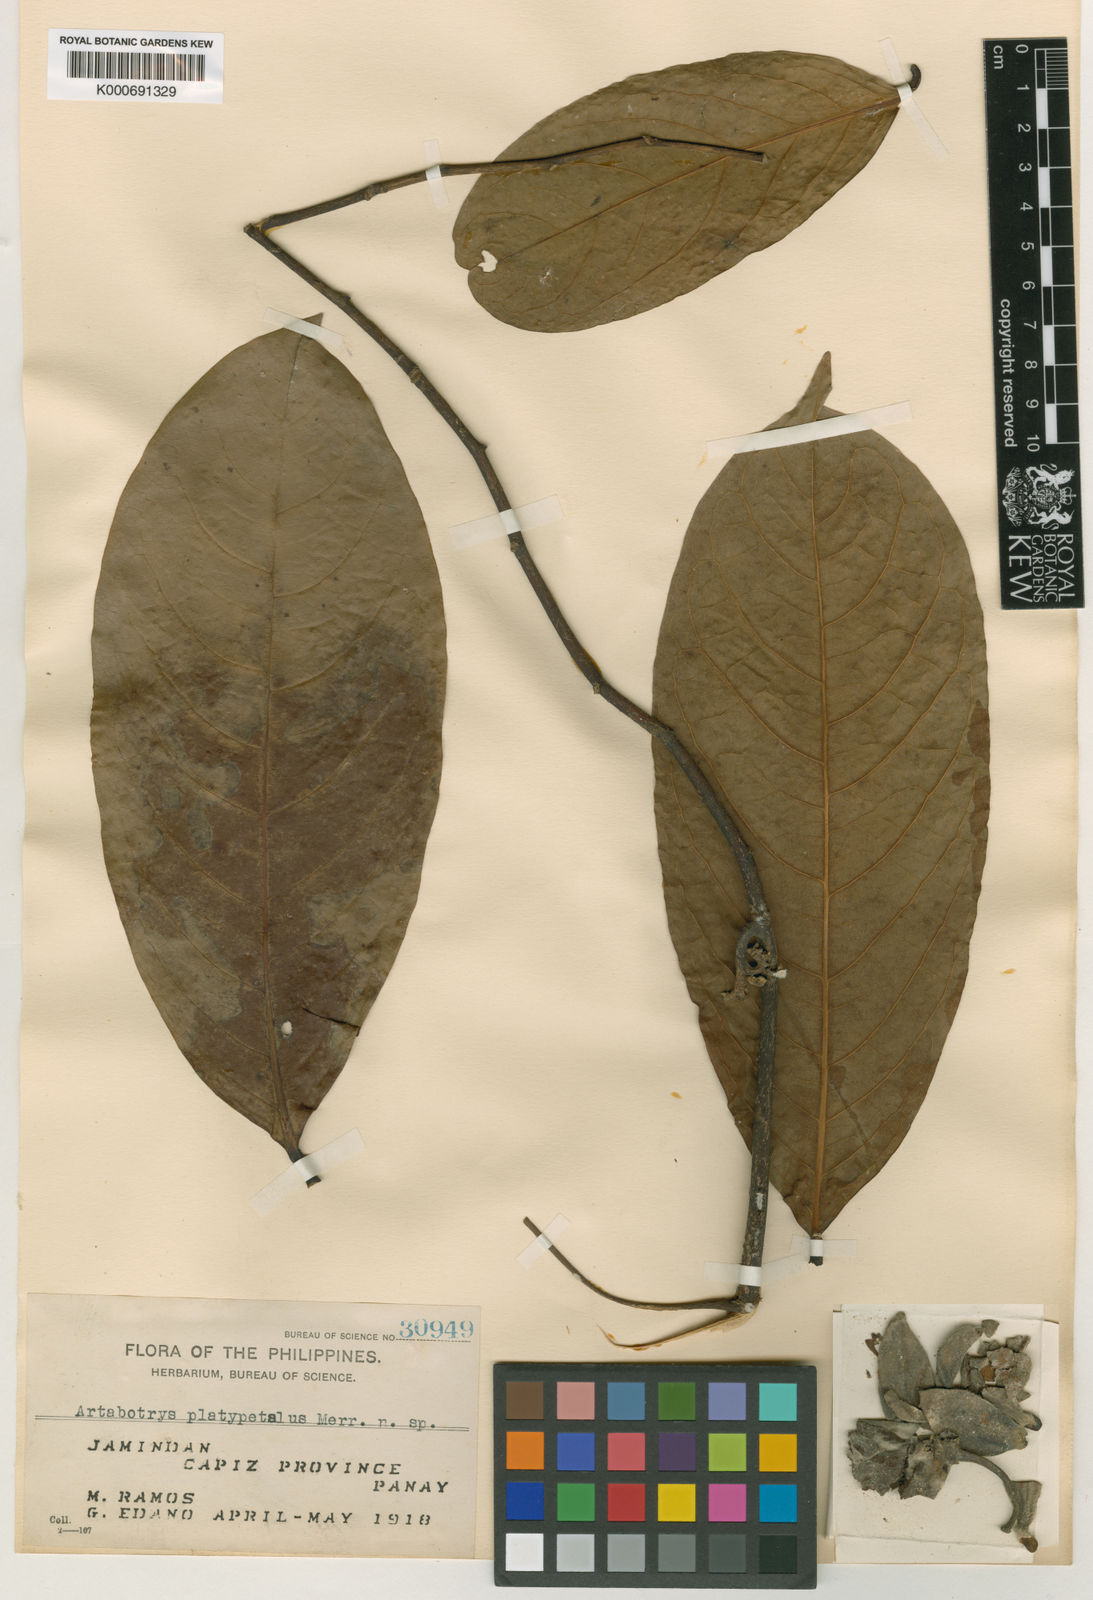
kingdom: Plantae
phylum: Tracheophyta
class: Magnoliopsida
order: Magnoliales
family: Annonaceae
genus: Artabotrys
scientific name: Artabotrys
